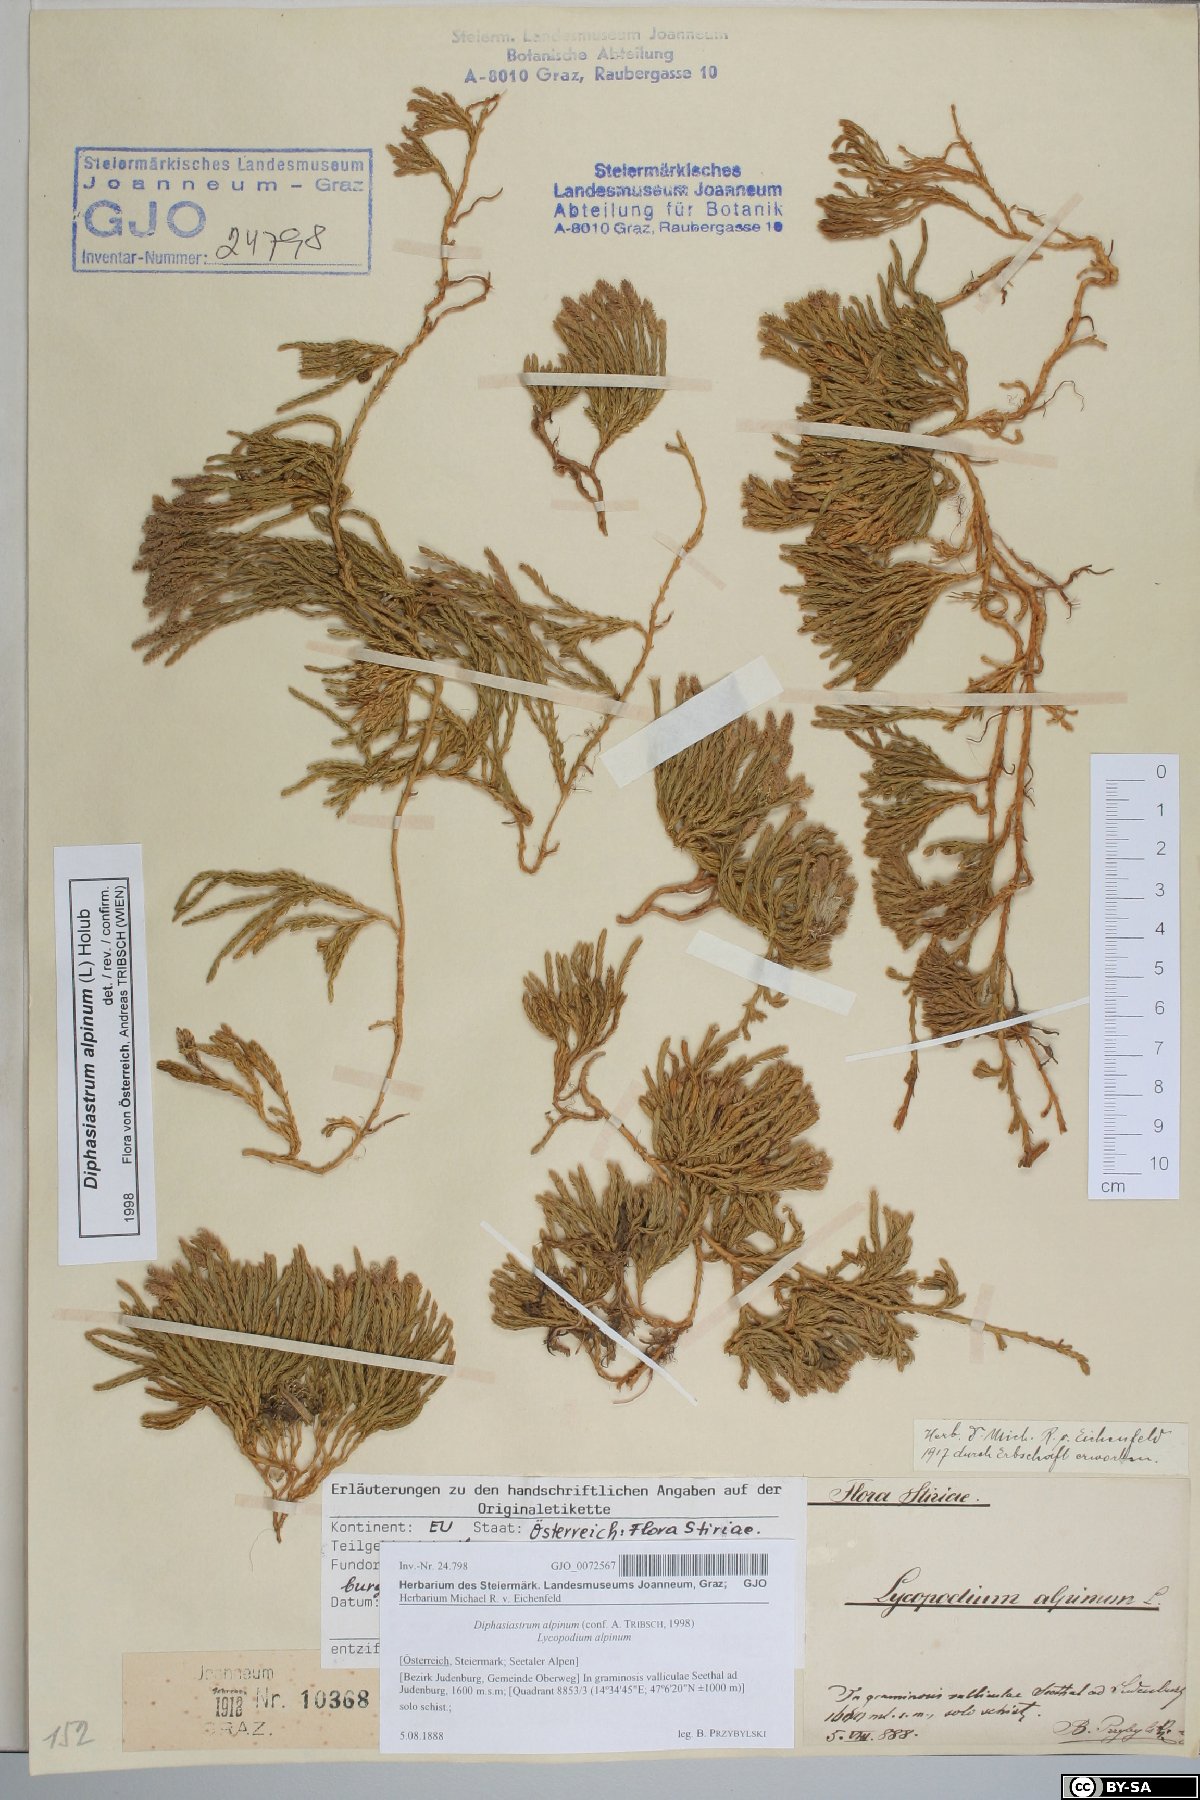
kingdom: Plantae
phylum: Tracheophyta
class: Lycopodiopsida
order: Lycopodiales
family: Lycopodiaceae
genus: Diphasiastrum
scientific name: Diphasiastrum alpinum
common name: Alpine clubmoss
